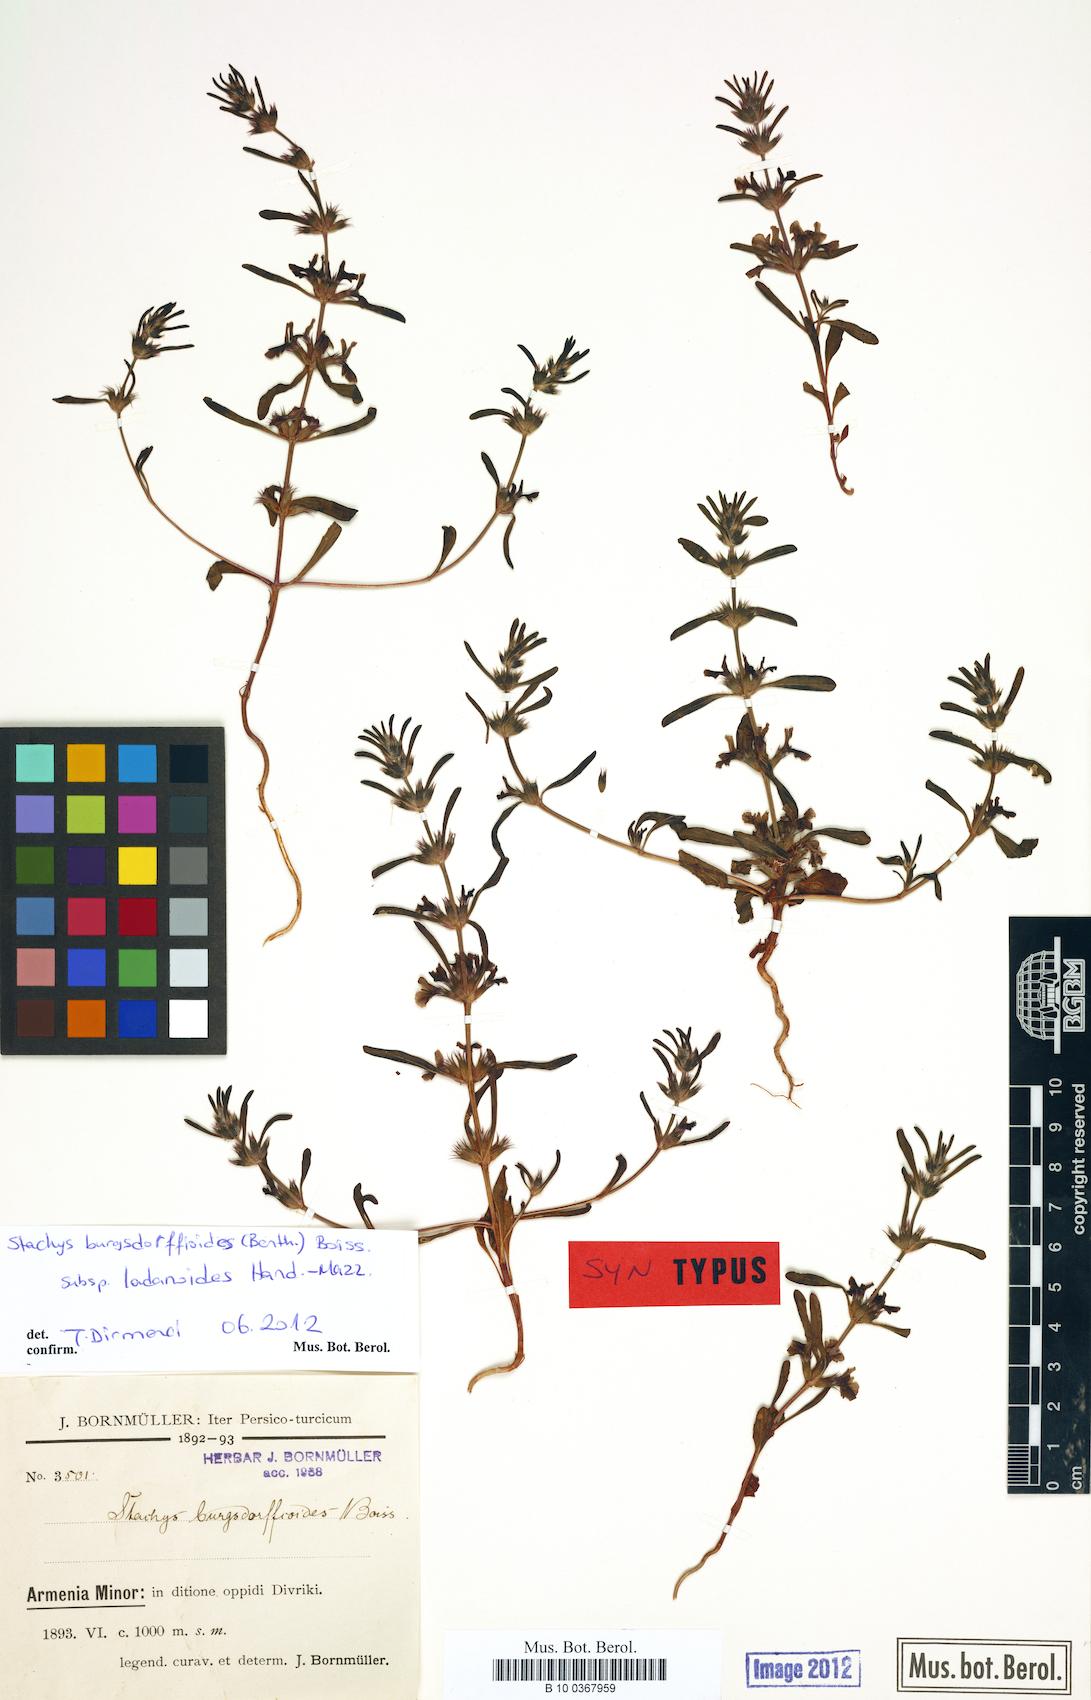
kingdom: Plantae
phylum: Tracheophyta
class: Magnoliopsida
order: Lamiales
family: Lamiaceae
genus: Stachys
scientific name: Stachys burgsdorffioides
